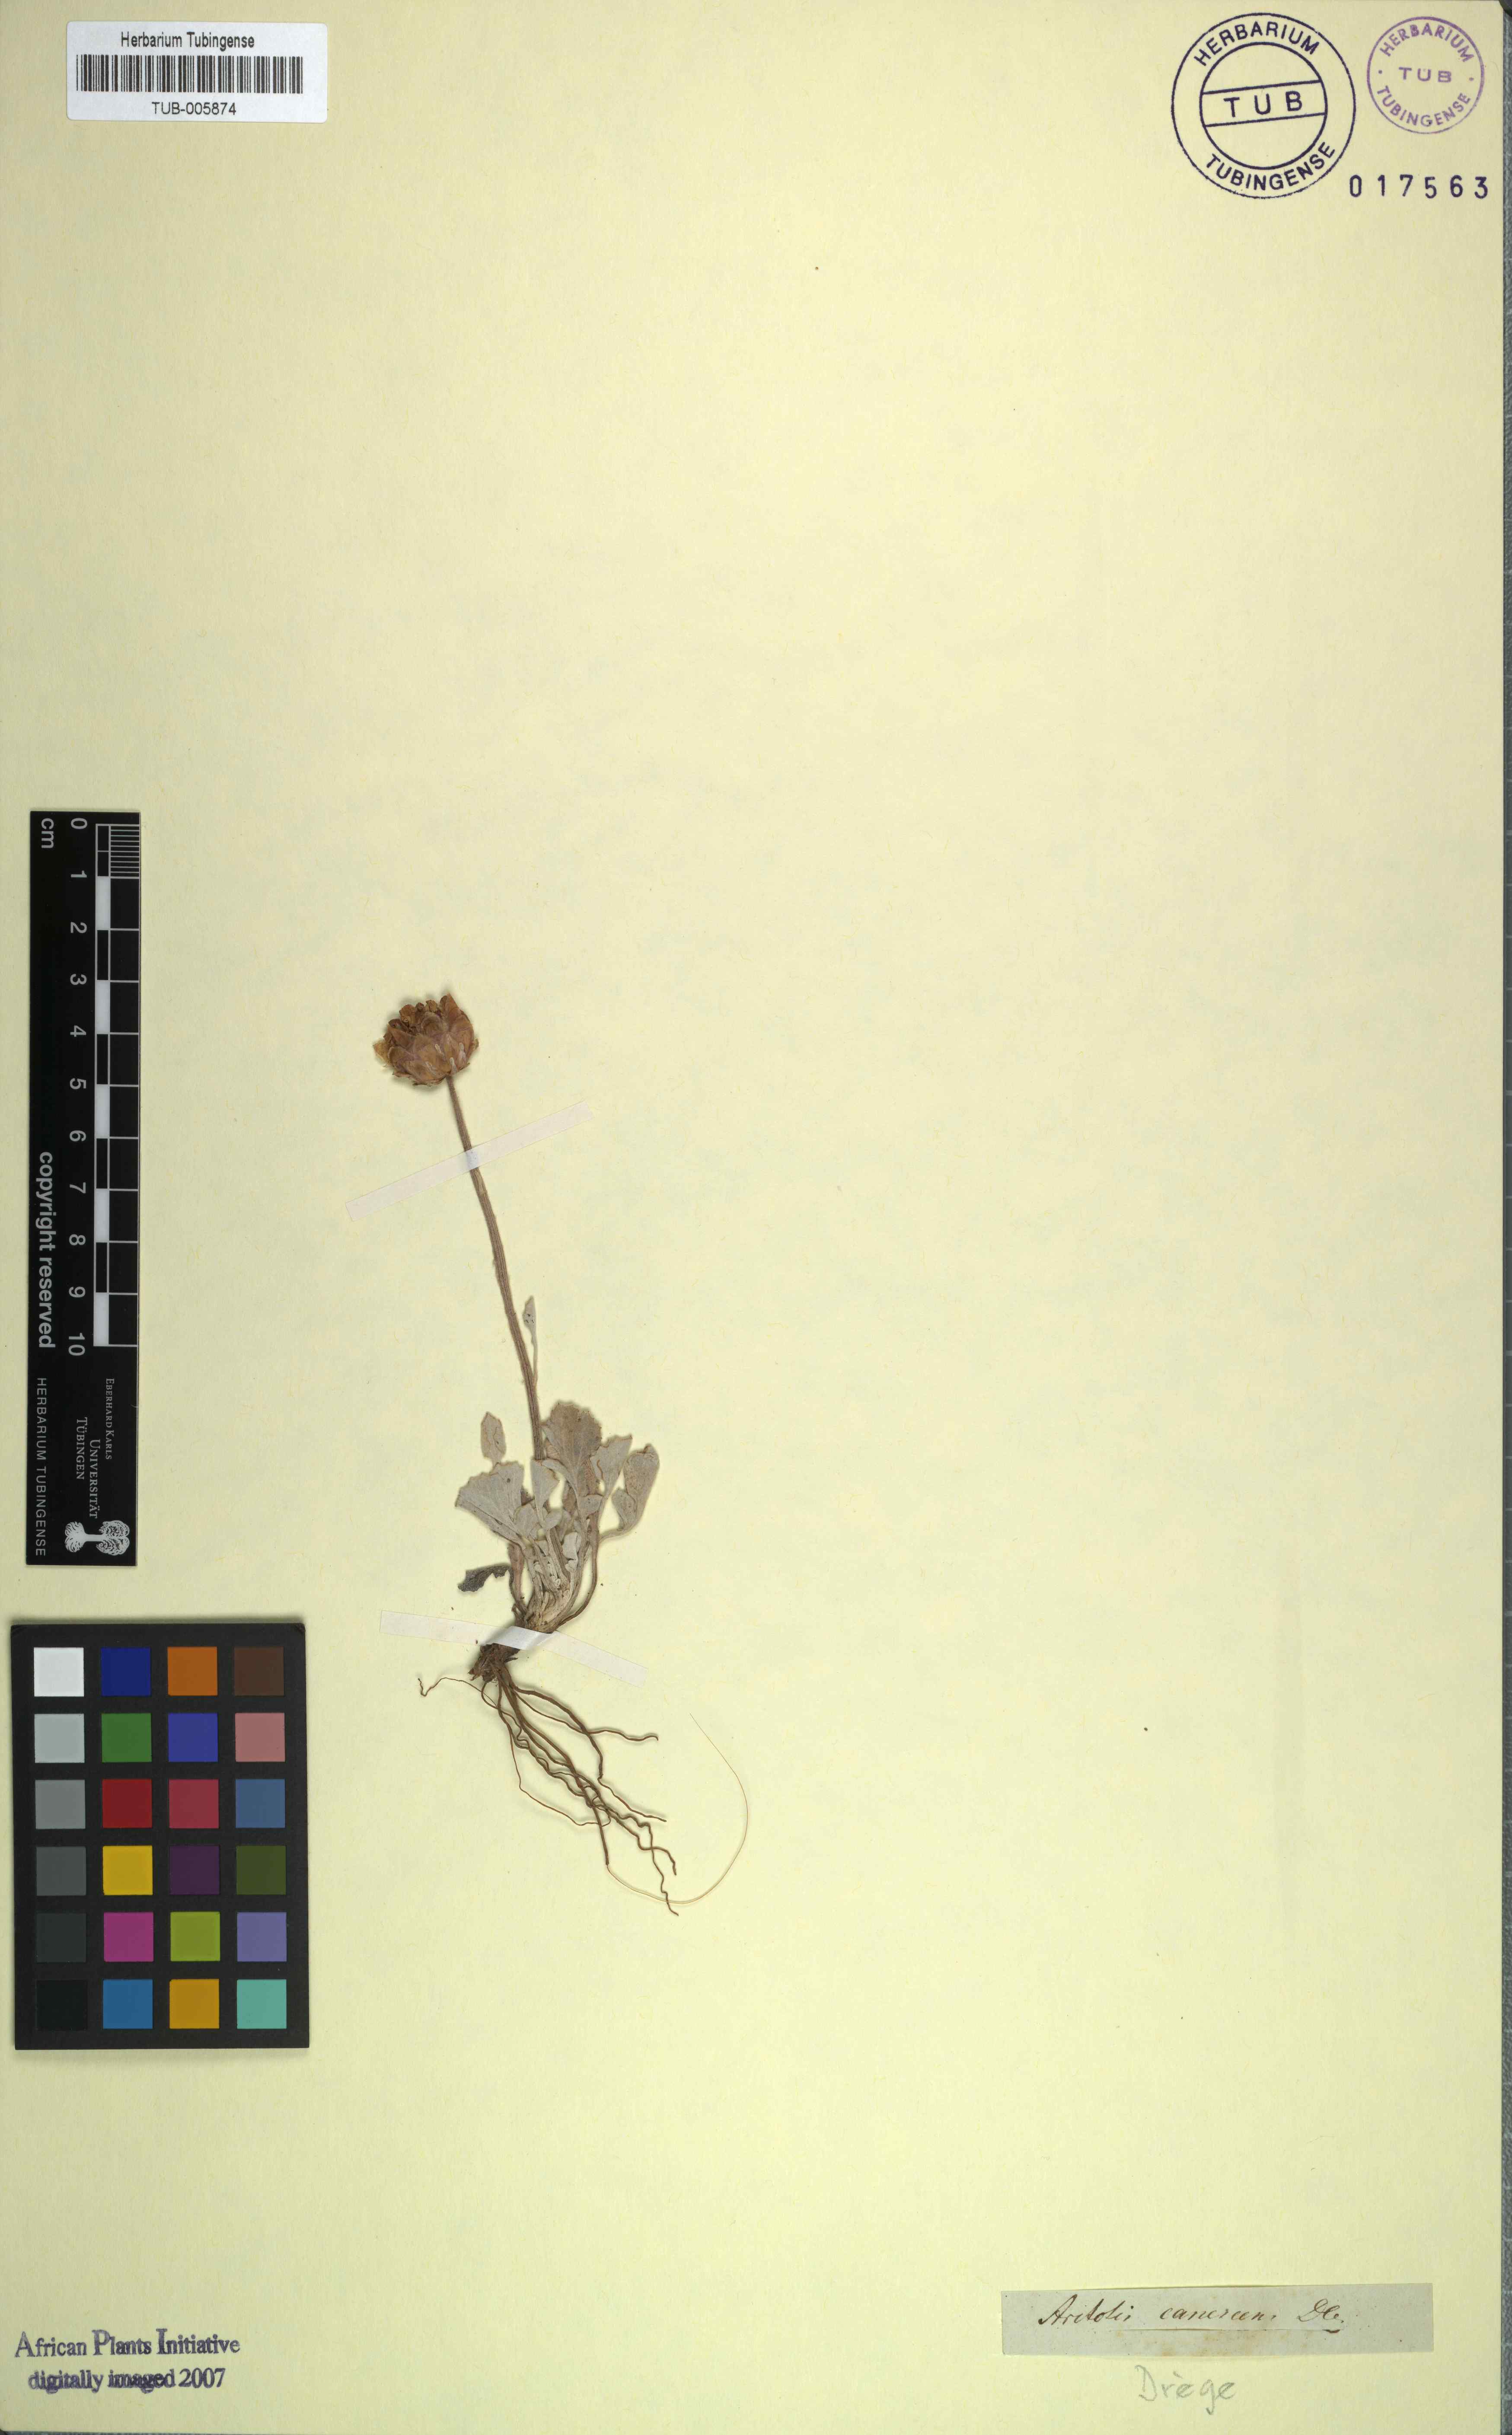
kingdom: Plantae
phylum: Tracheophyta
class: Magnoliopsida
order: Asterales
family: Asteraceae
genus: Arctotis
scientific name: Arctotis diffusa
